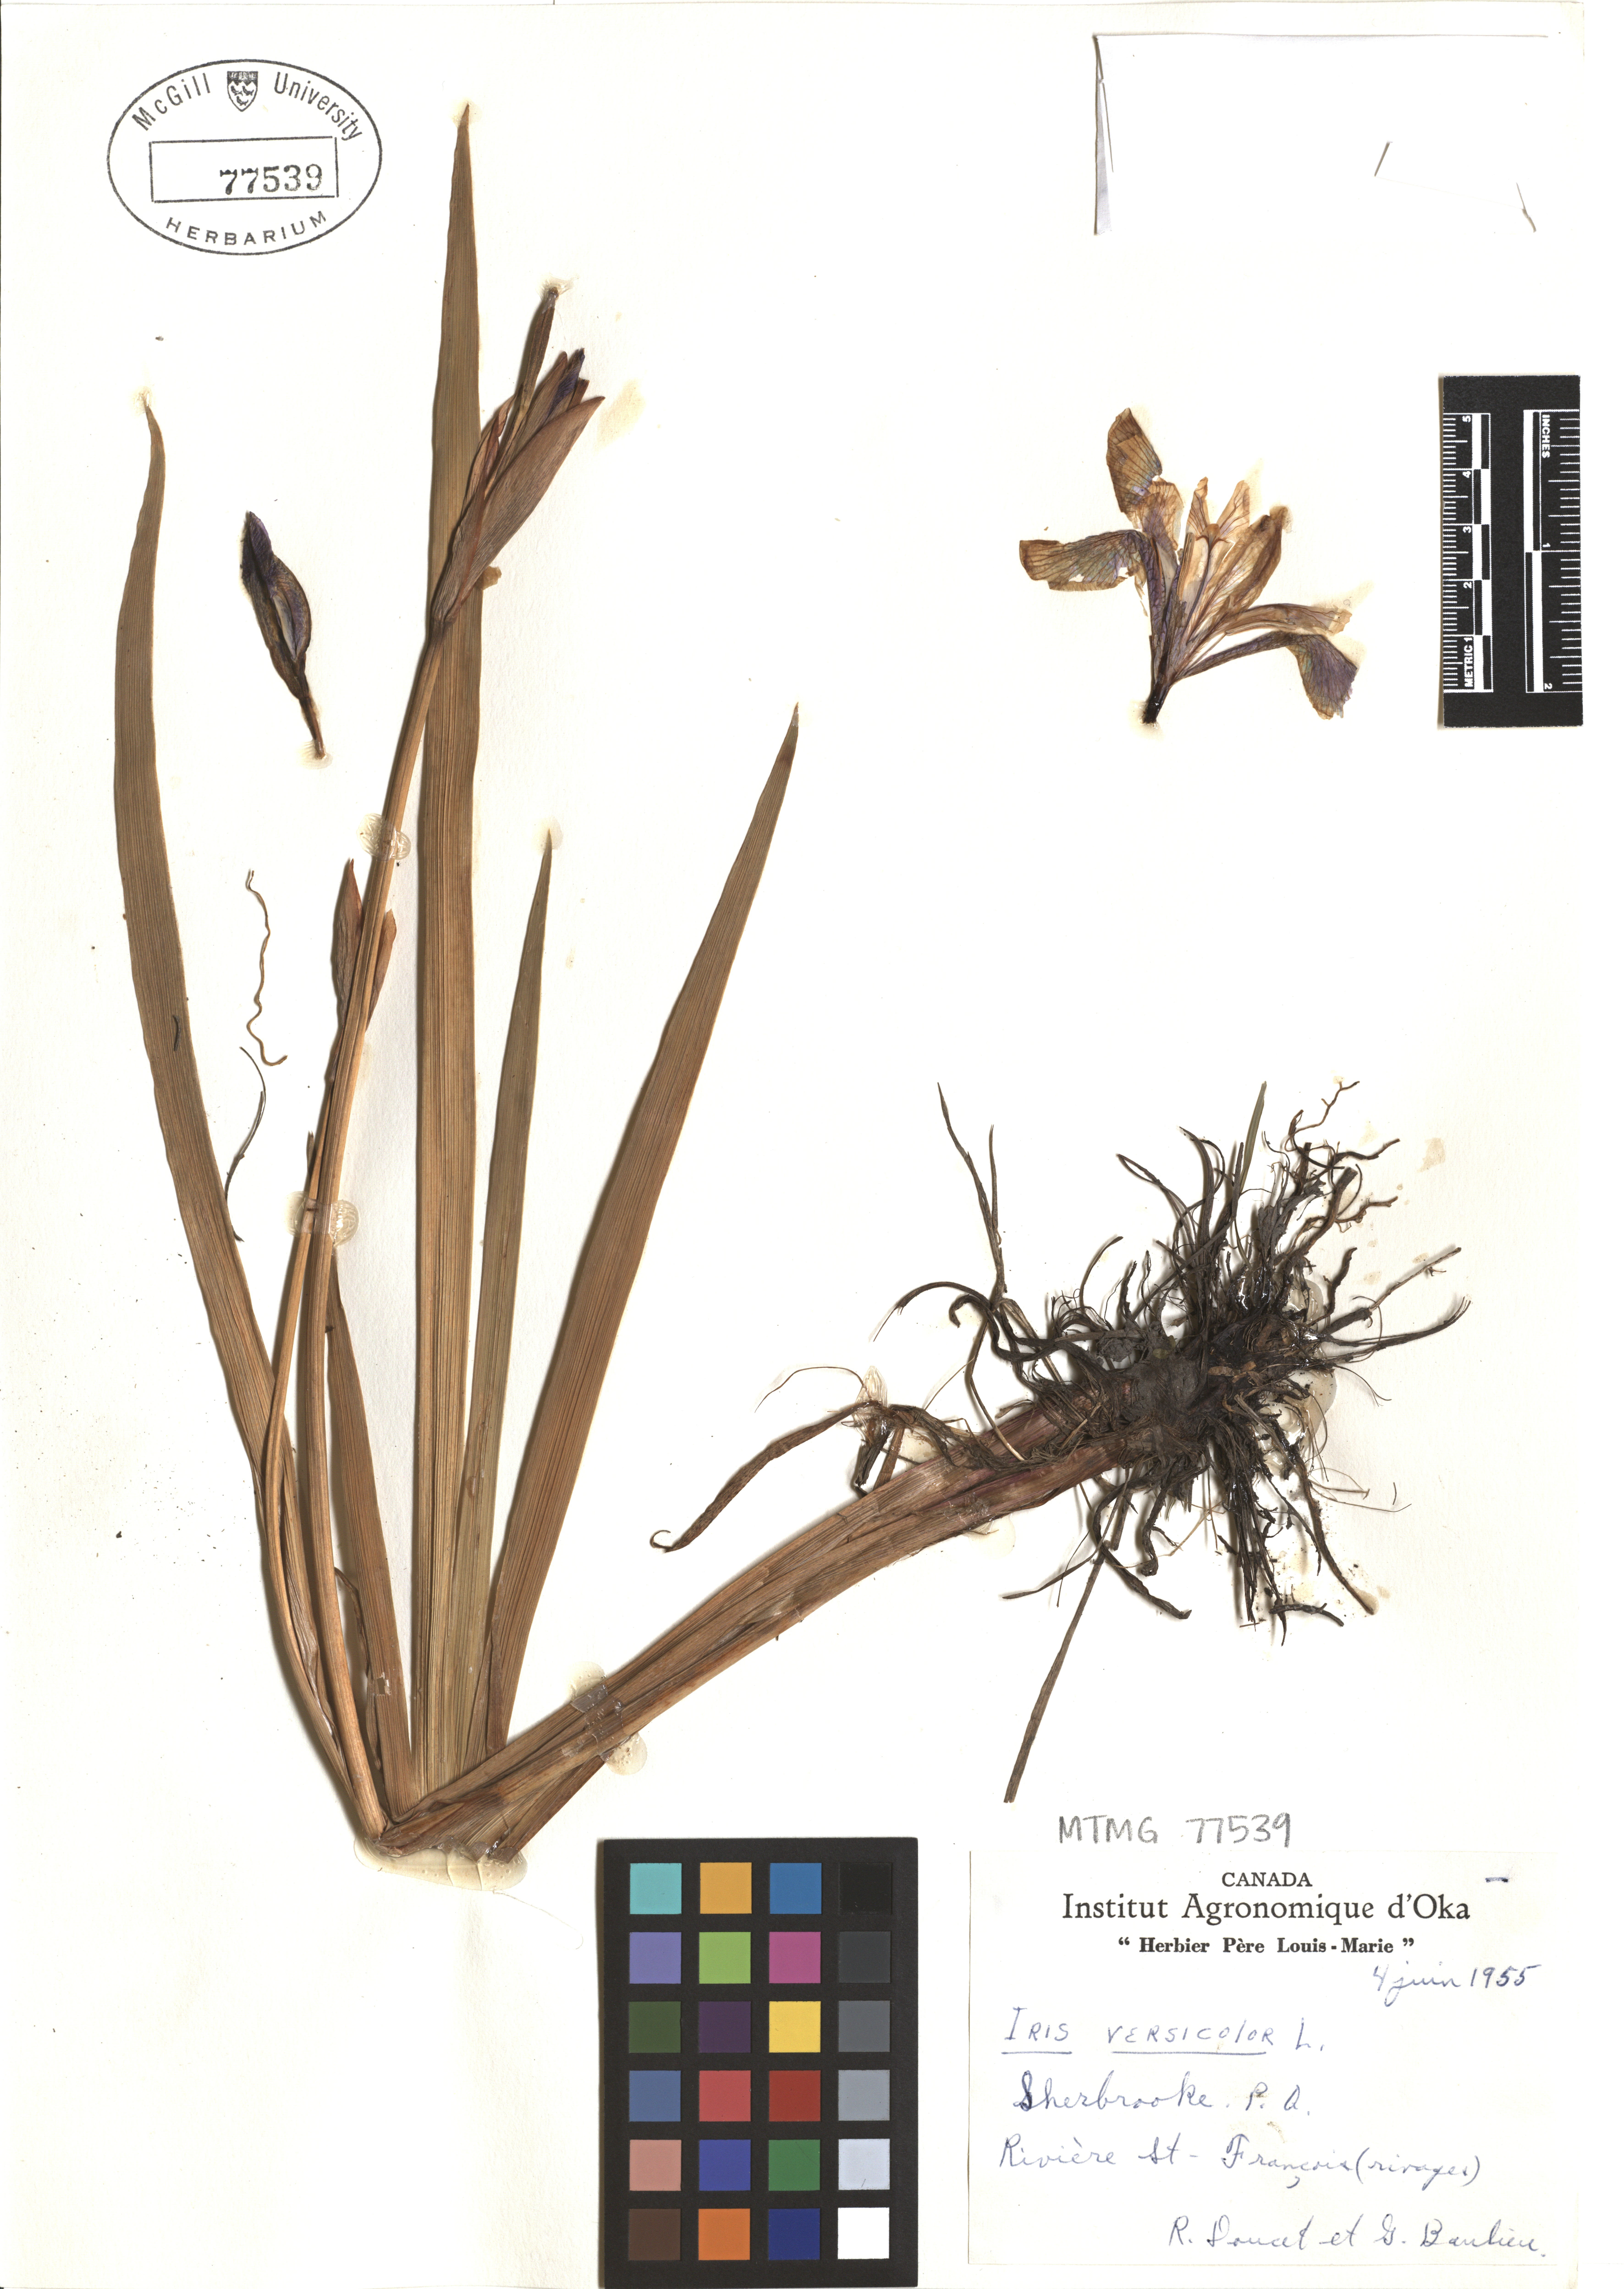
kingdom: Plantae
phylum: Tracheophyta
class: Liliopsida
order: Asparagales
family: Iridaceae
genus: Iris
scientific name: Iris versicolor
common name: Purple iris
